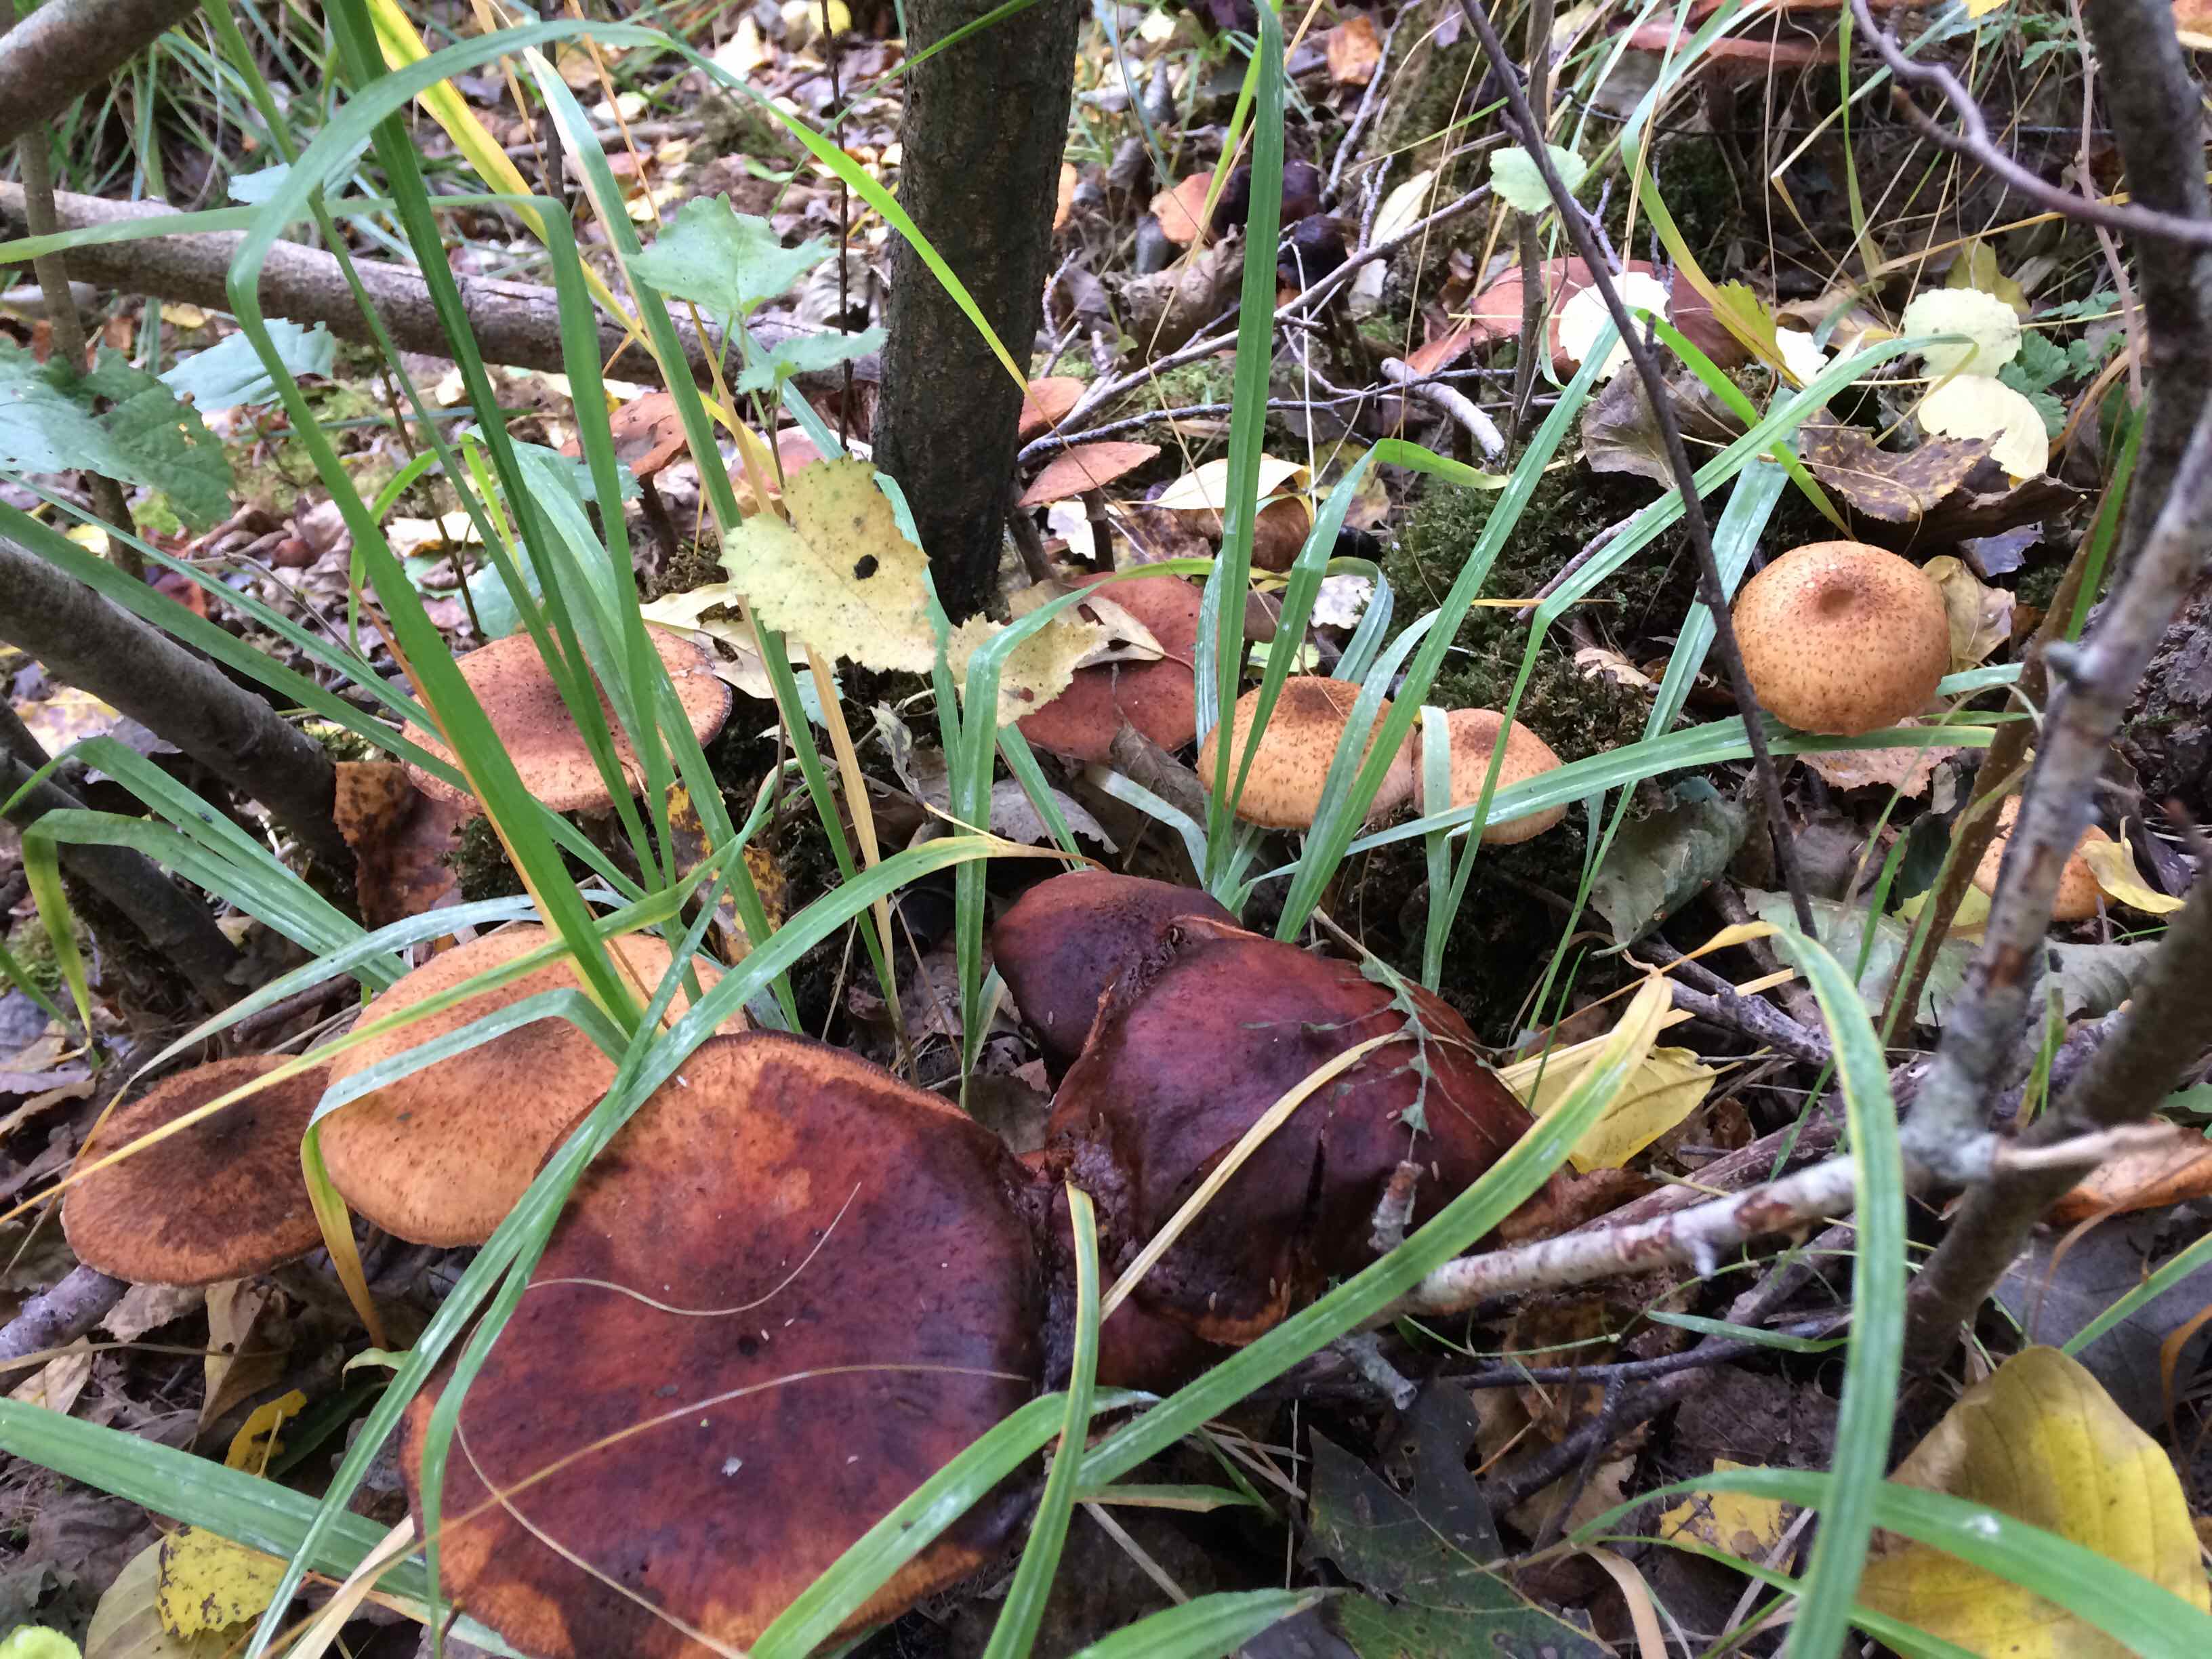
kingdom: Fungi
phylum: Basidiomycota
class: Agaricomycetes
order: Agaricales
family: Physalacriaceae
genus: Armillaria
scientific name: Armillaria ostoyae
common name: mørk honningsvamp
